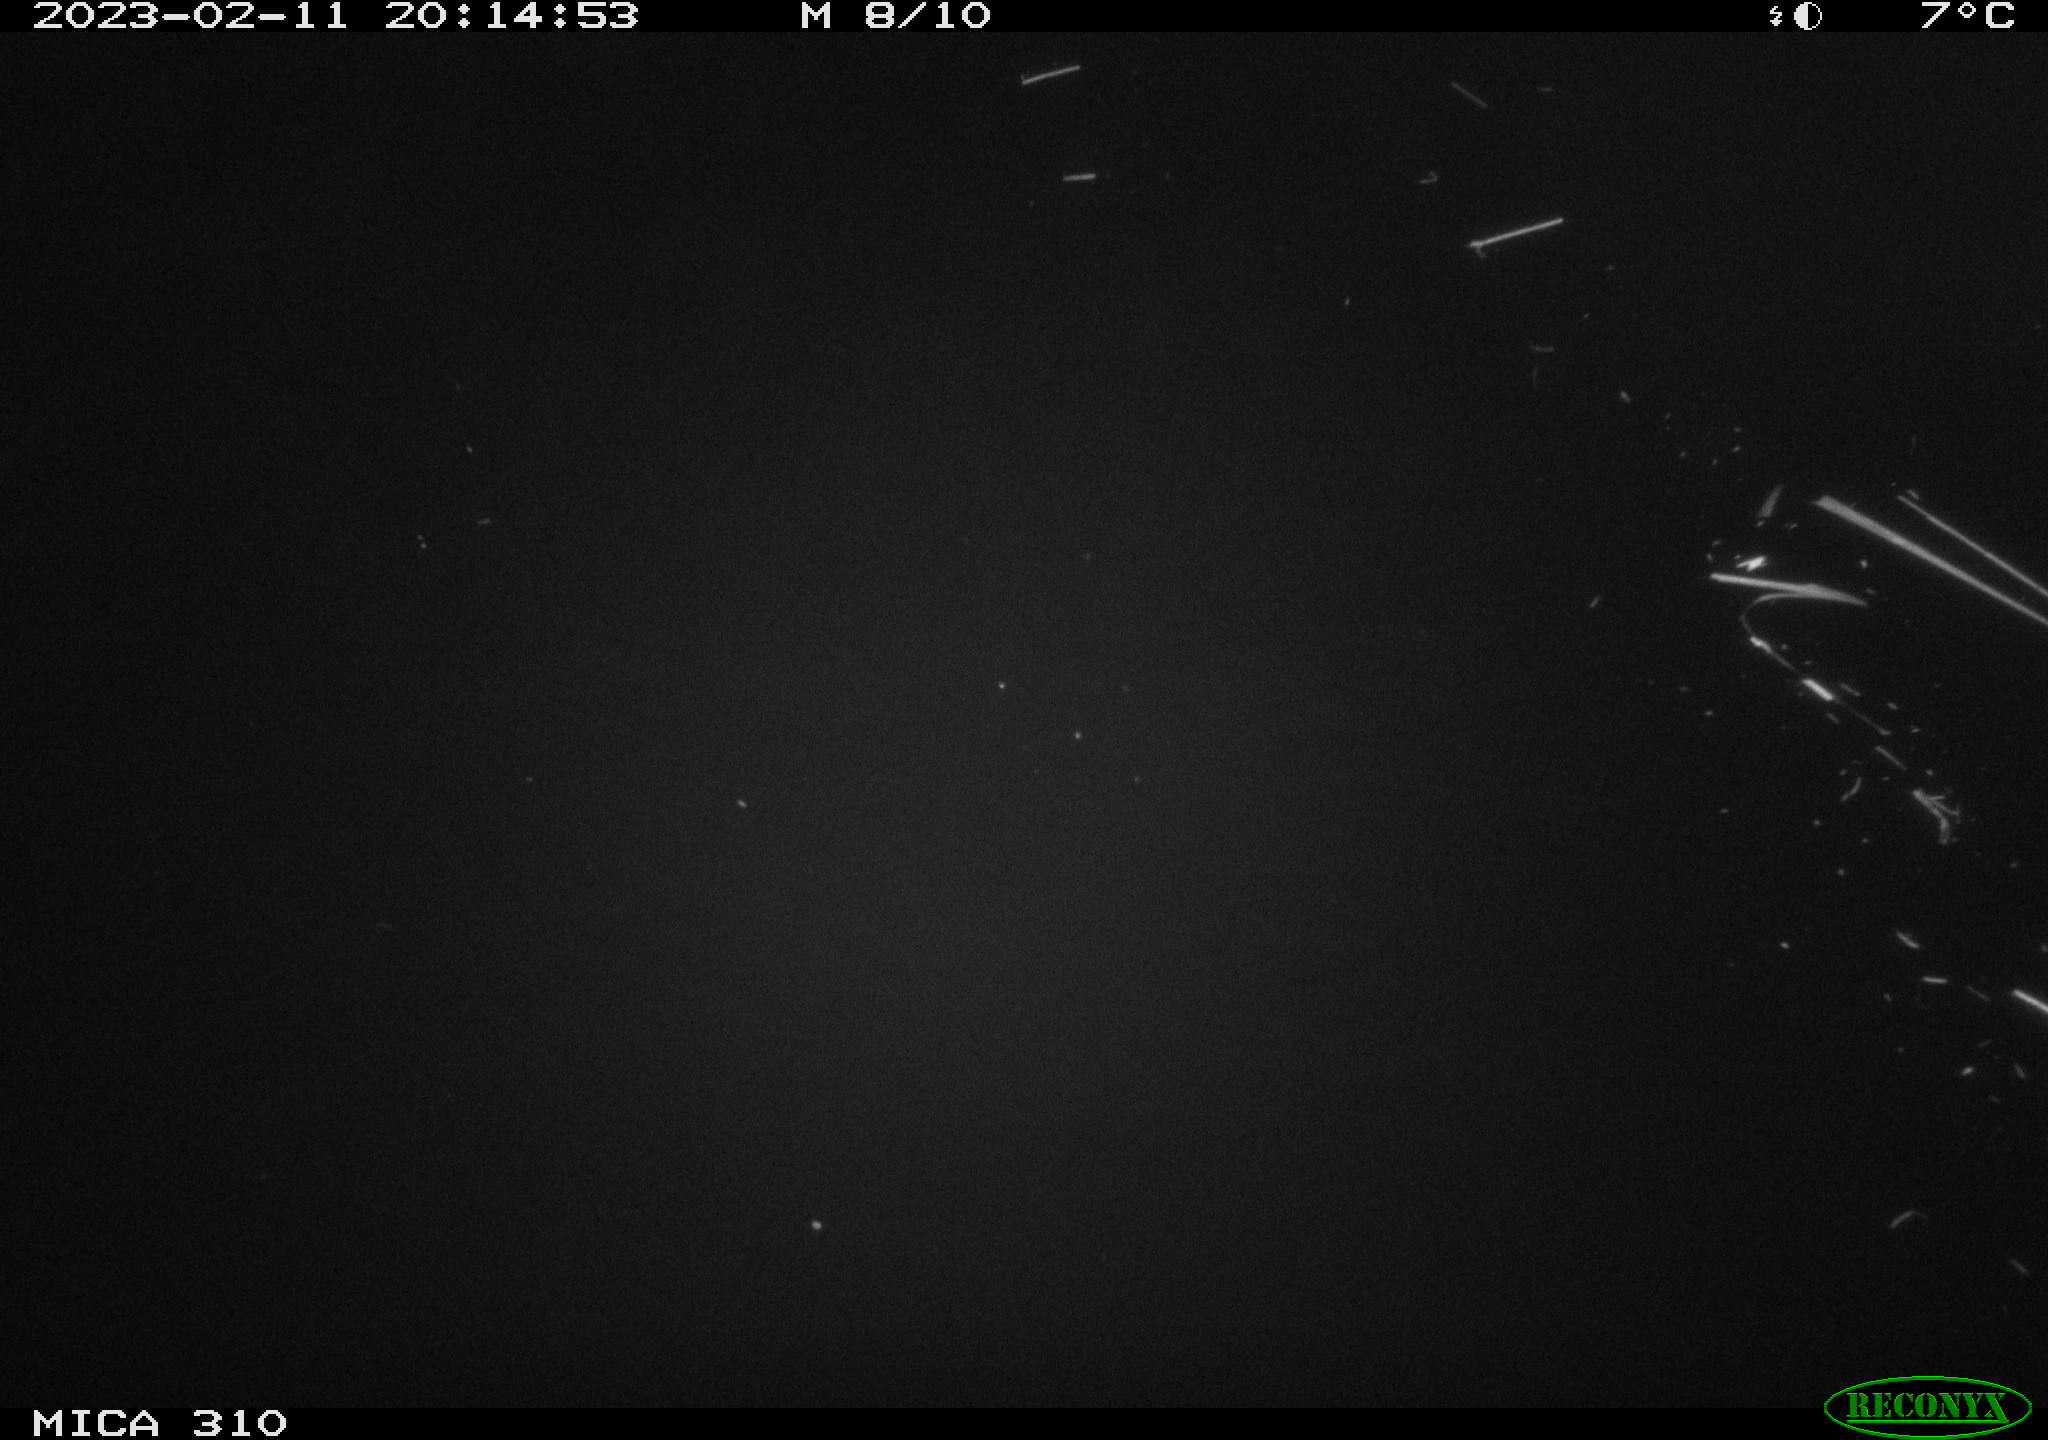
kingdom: Animalia
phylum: Chordata
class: Mammalia
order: Rodentia
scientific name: Rodentia
